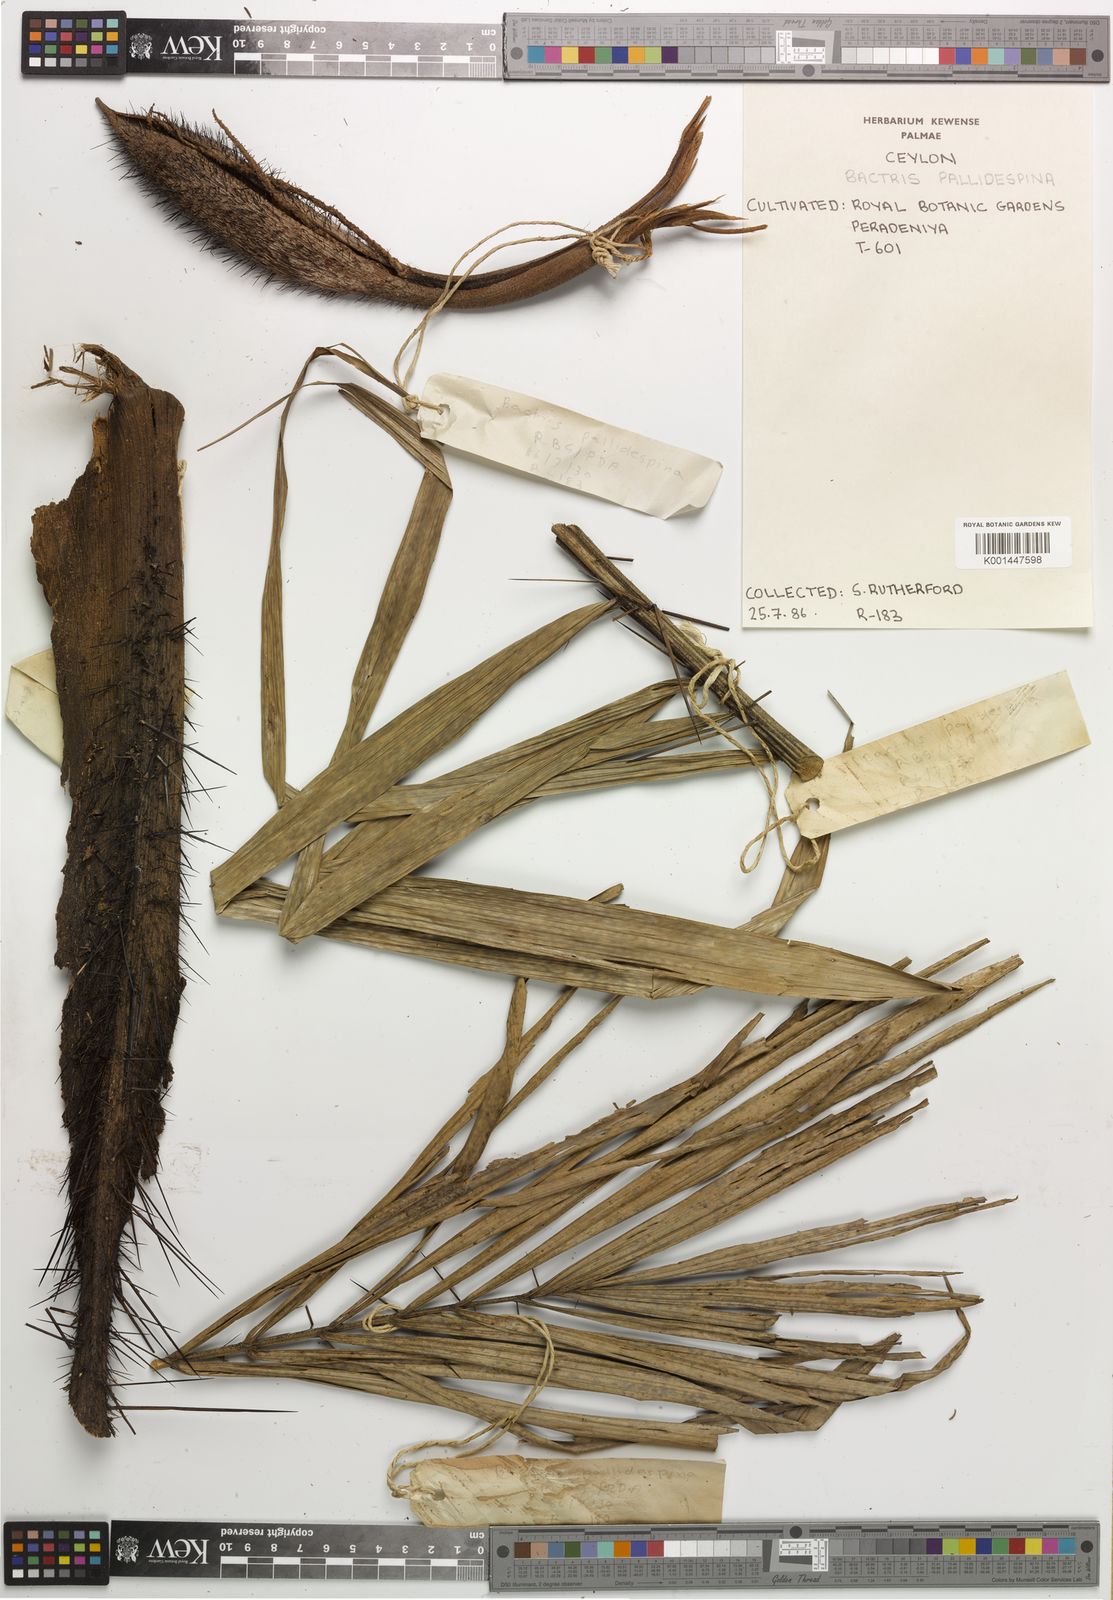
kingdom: Plantae
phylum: Tracheophyta
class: Liliopsida
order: Arecales
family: Arecaceae
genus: Bactris
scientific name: Bactris brongniartii
